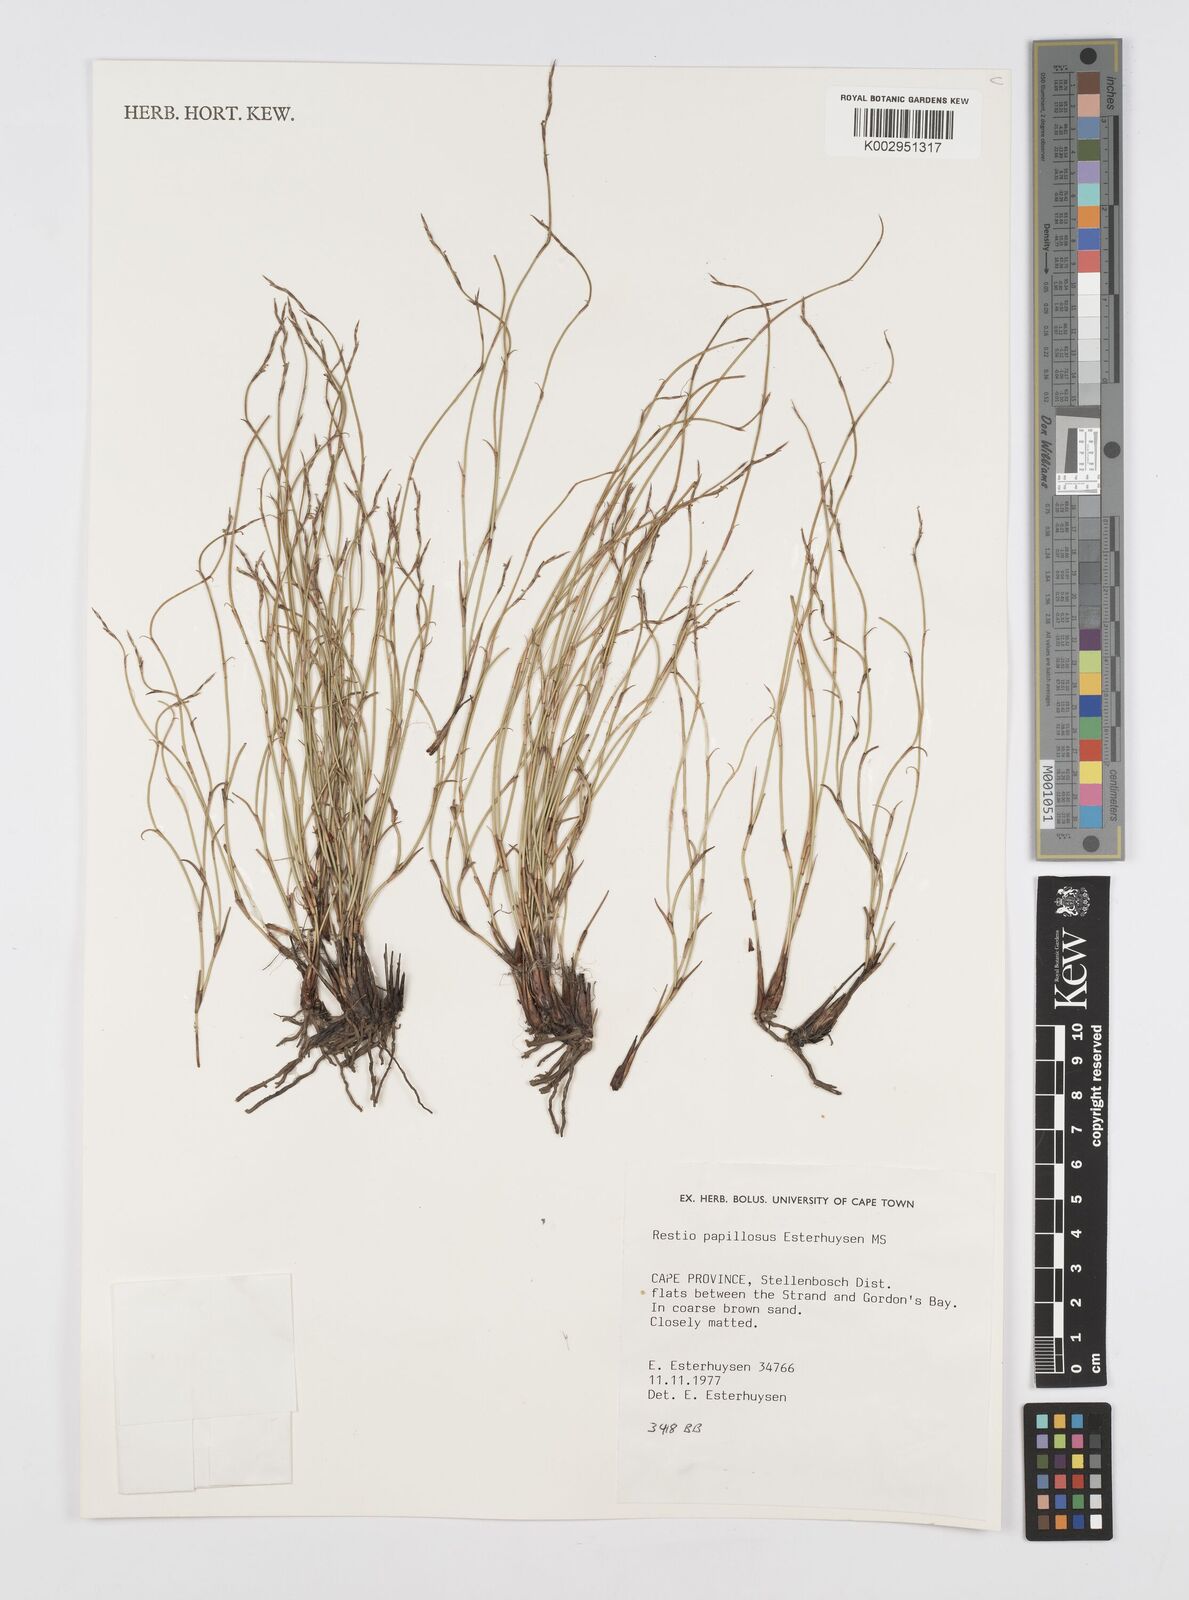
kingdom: Plantae
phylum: Tracheophyta
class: Liliopsida
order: Poales
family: Restionaceae
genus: Restio
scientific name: Restio papillosus
